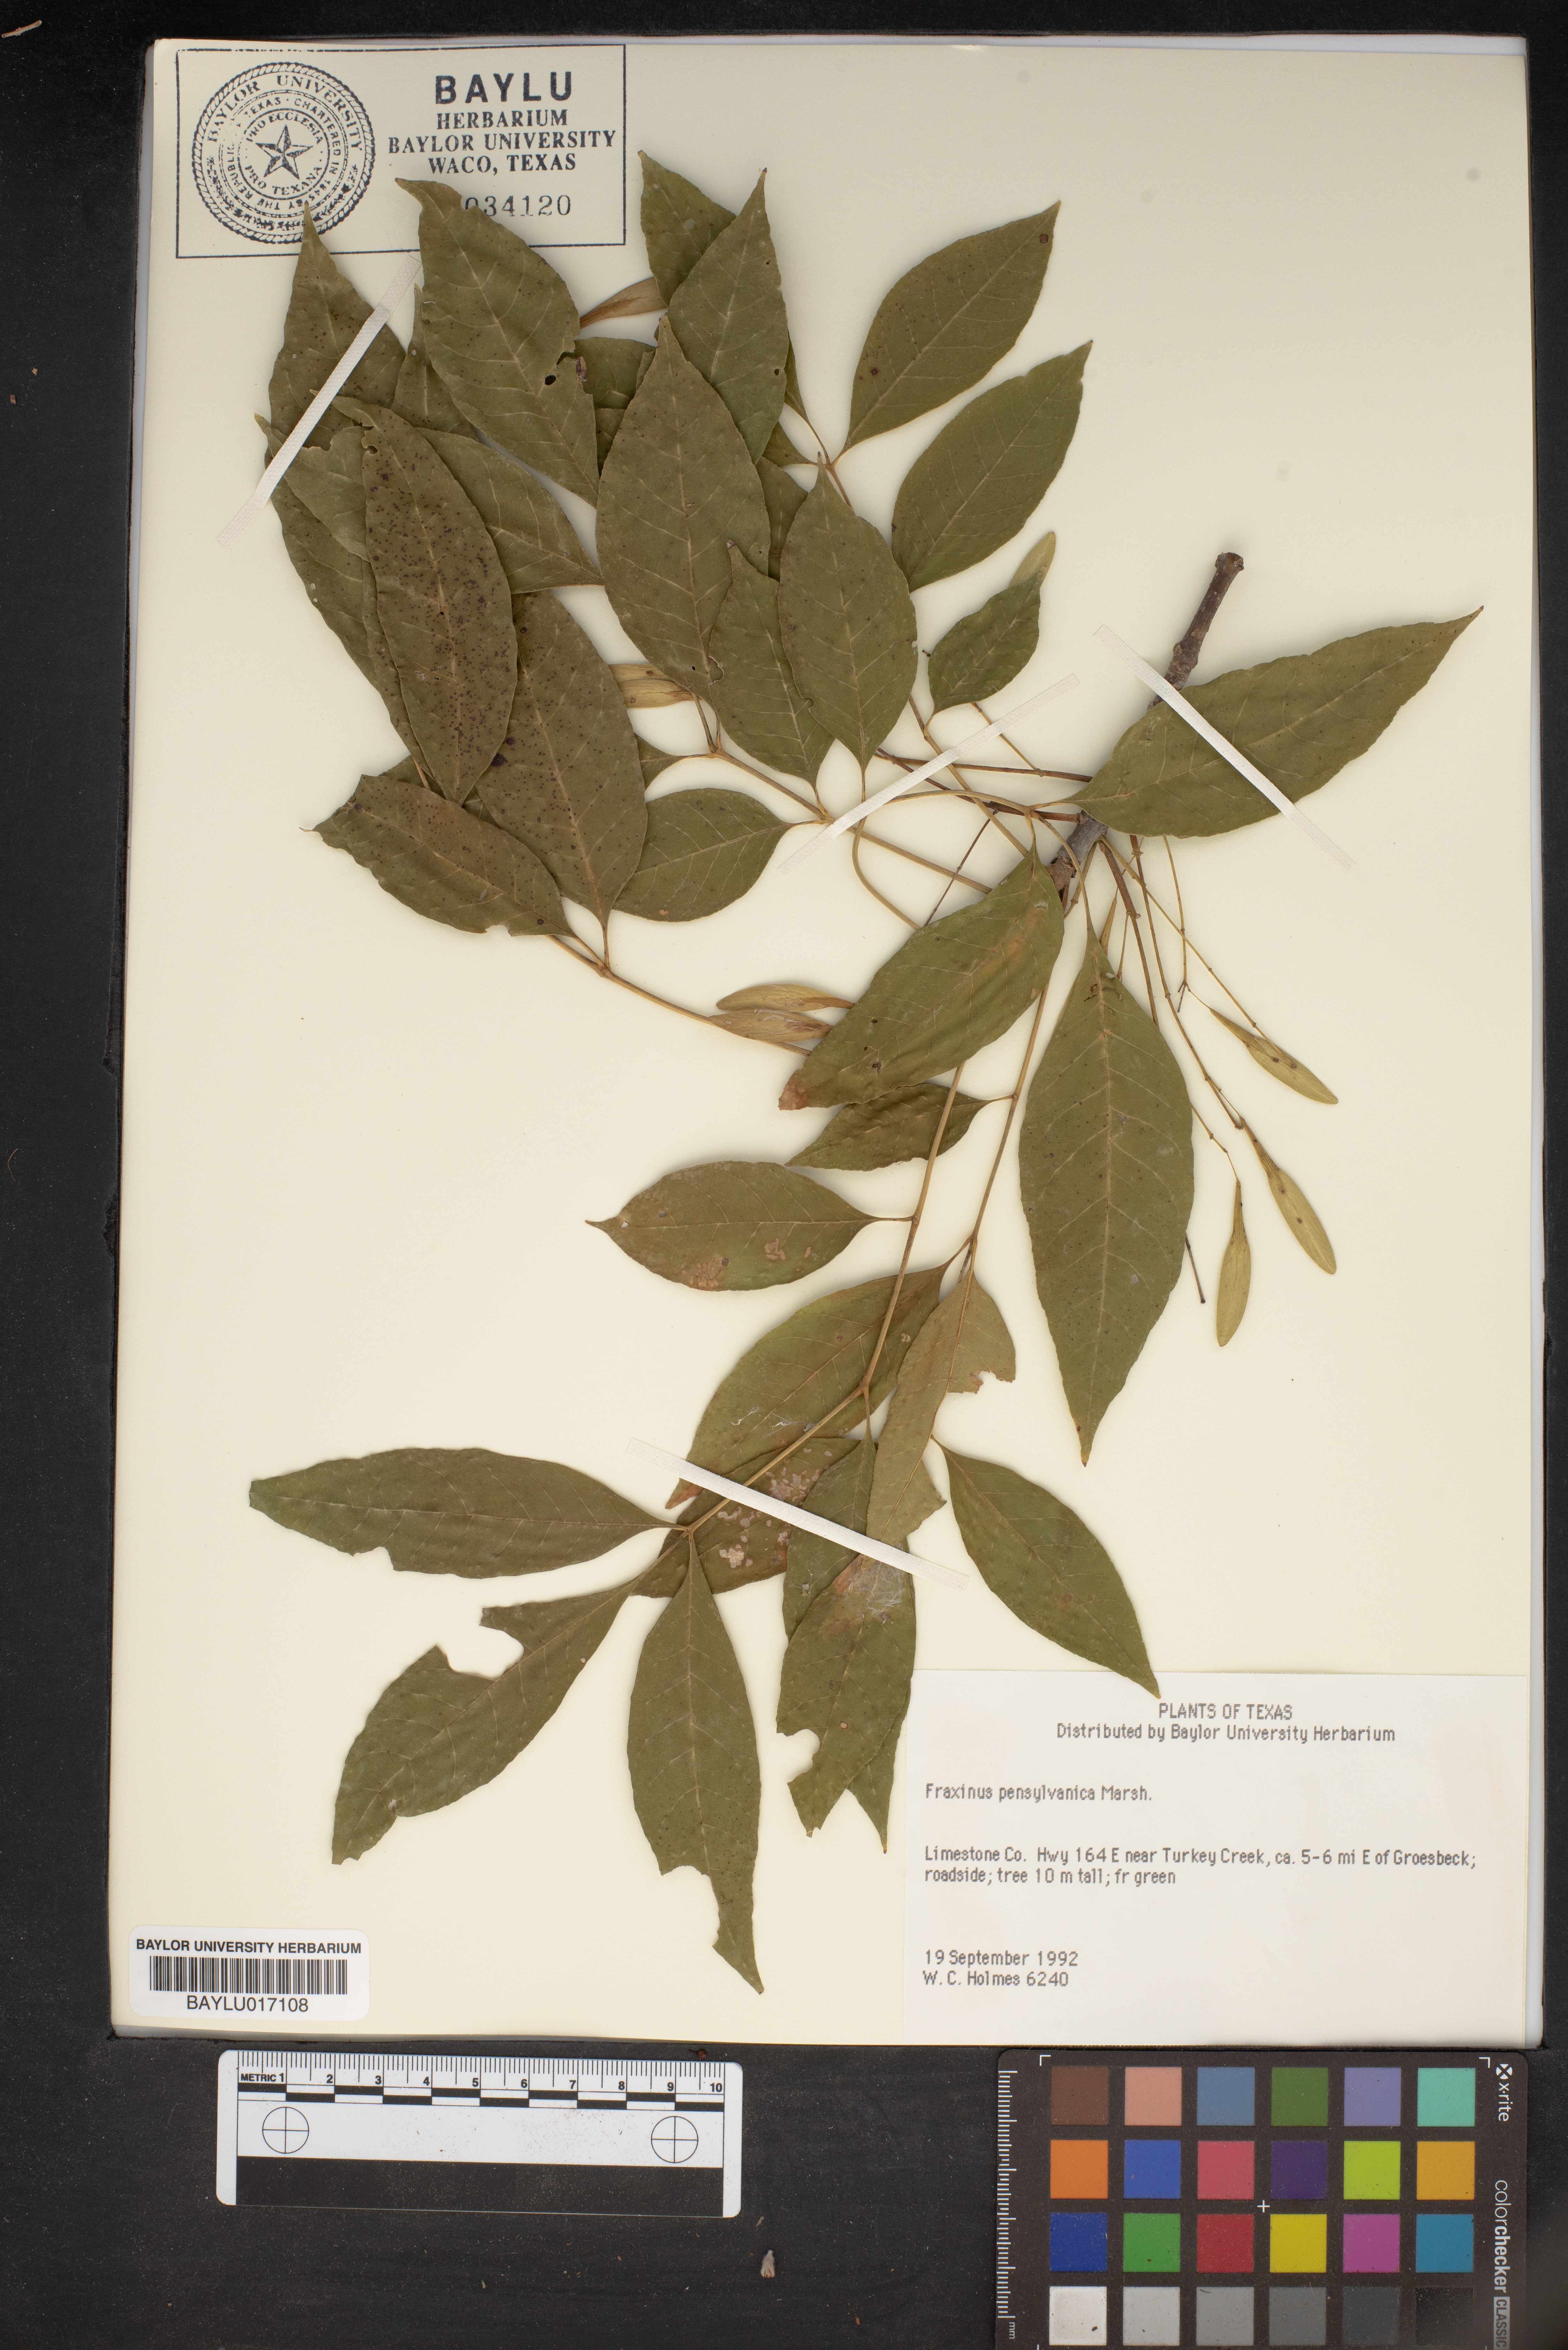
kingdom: Plantae
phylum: Tracheophyta
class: Magnoliopsida
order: Lamiales
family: Oleaceae
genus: Fraxinus
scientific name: Fraxinus pennsylvanica
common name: Green ash
